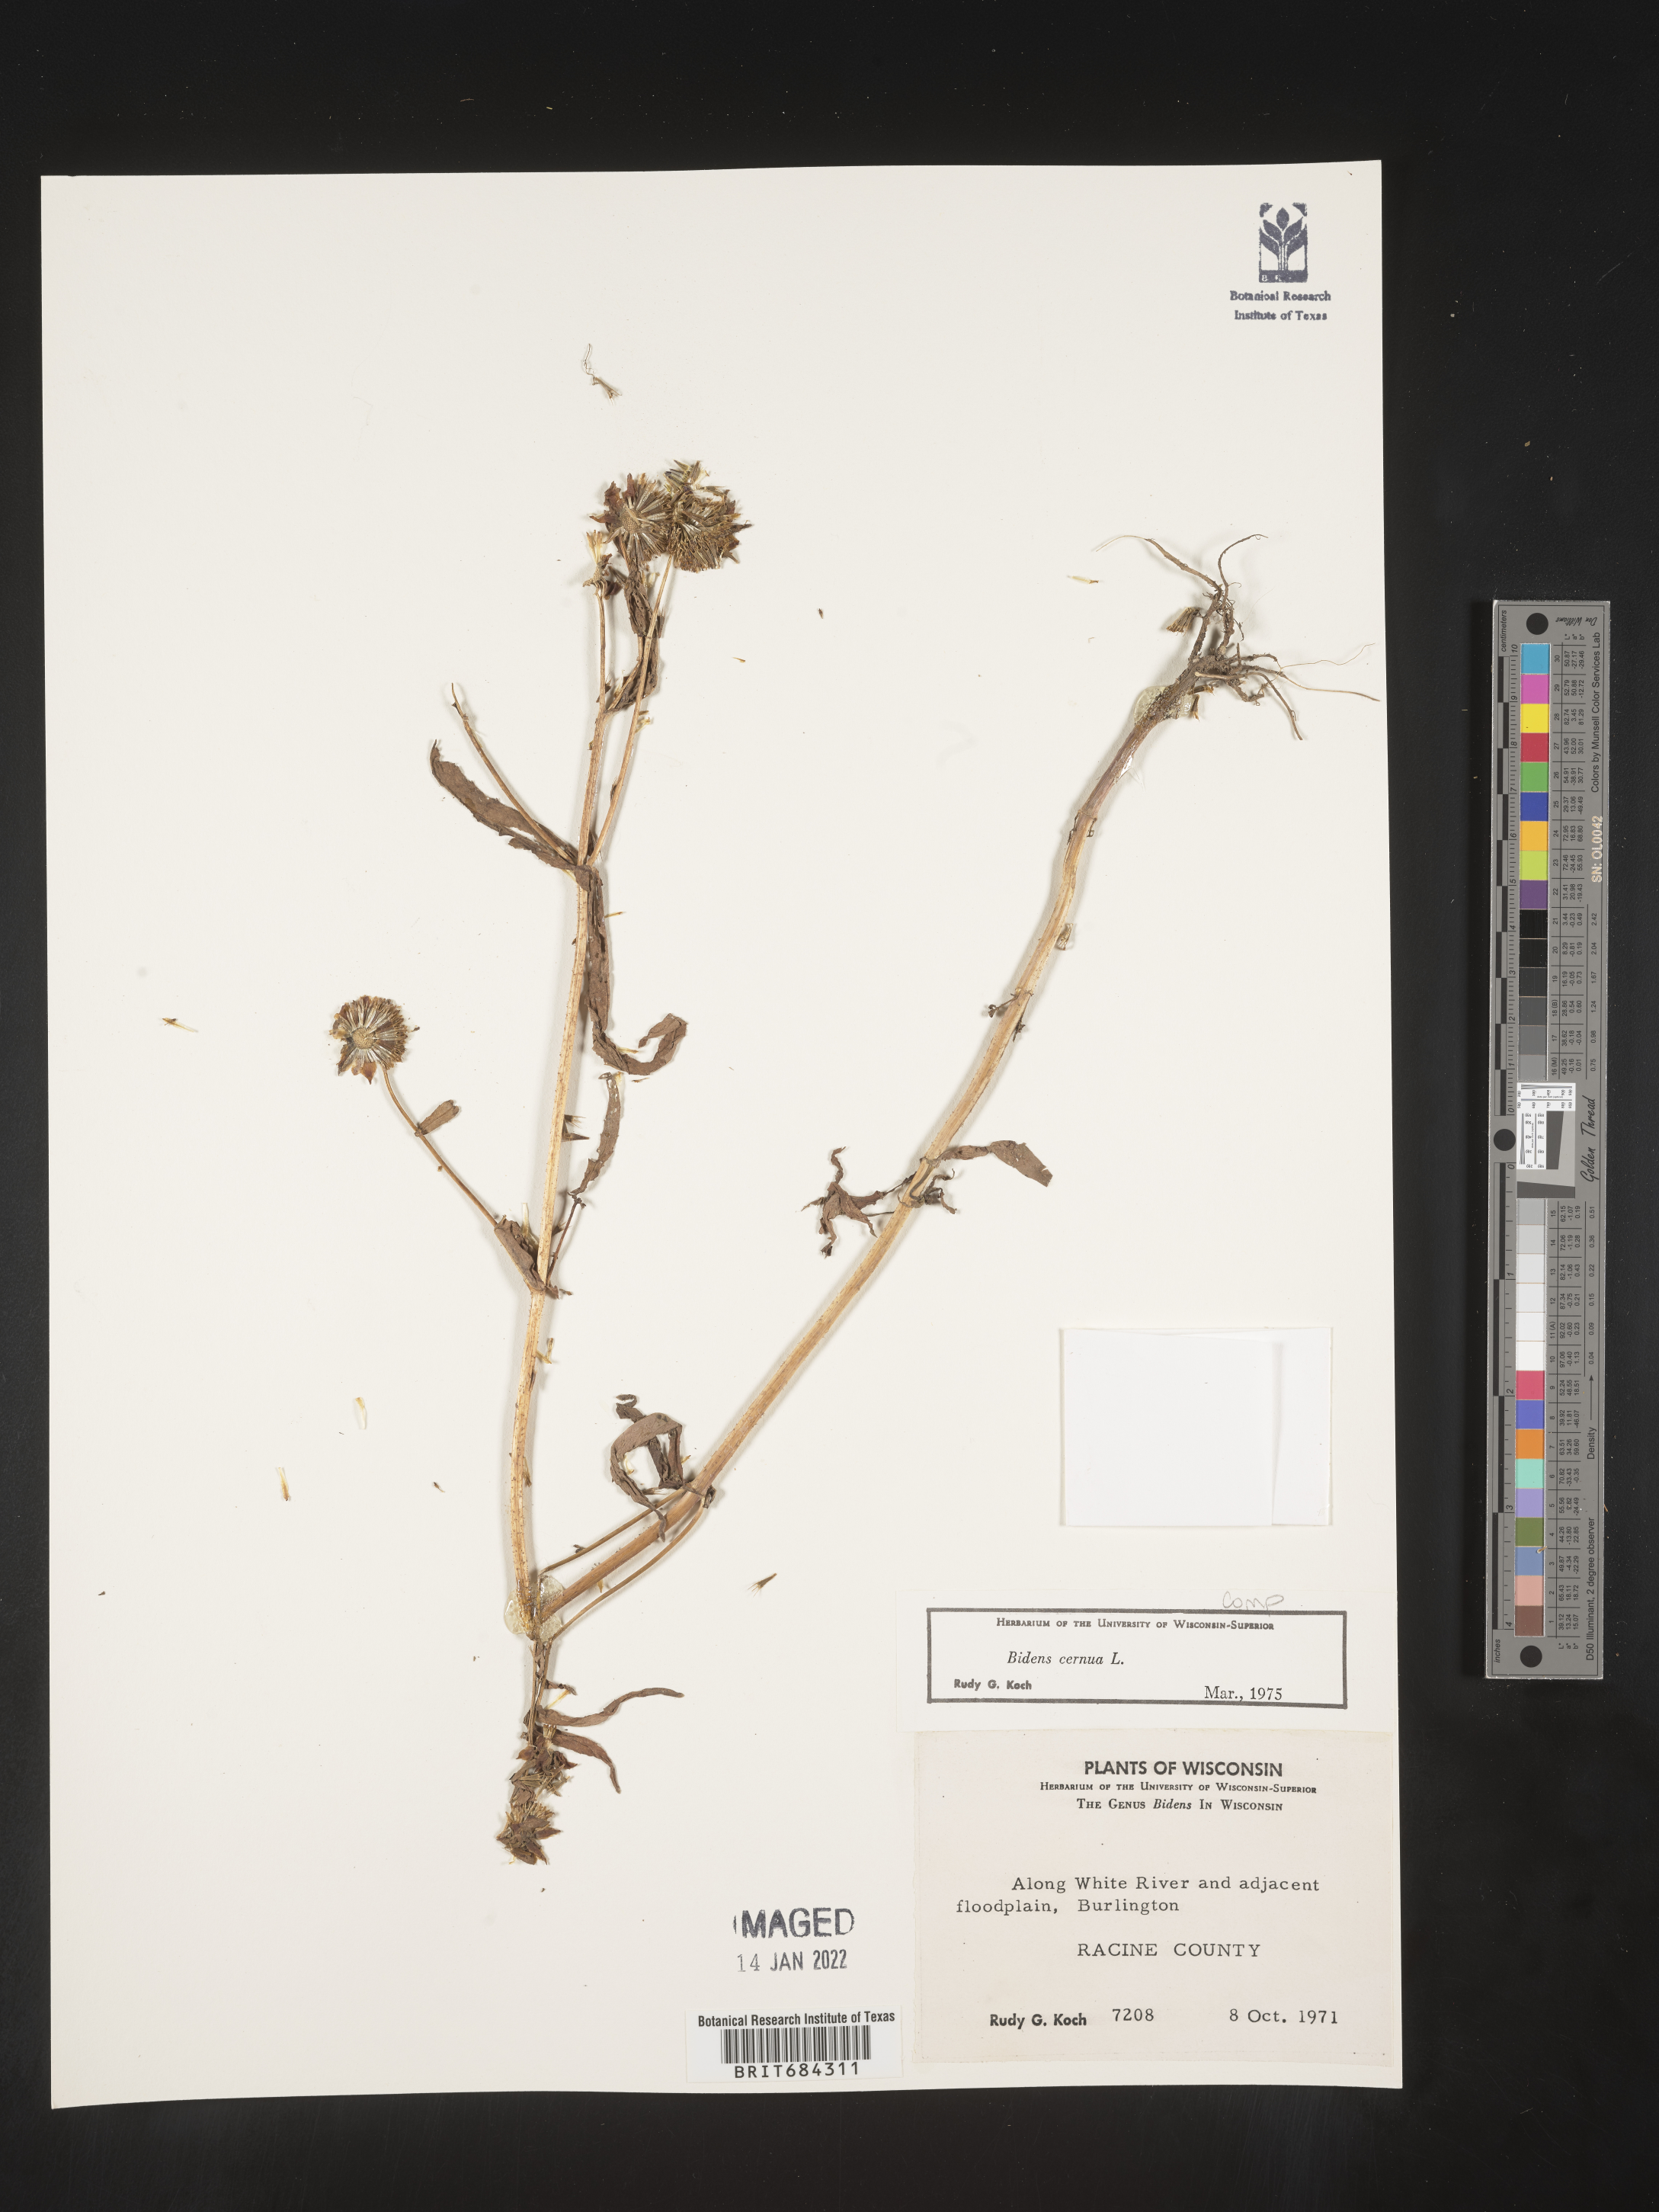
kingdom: Plantae
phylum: Tracheophyta
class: Magnoliopsida
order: Asterales
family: Asteraceae
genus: Bidens
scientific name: Bidens cernua
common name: Nodding bur-marigold
